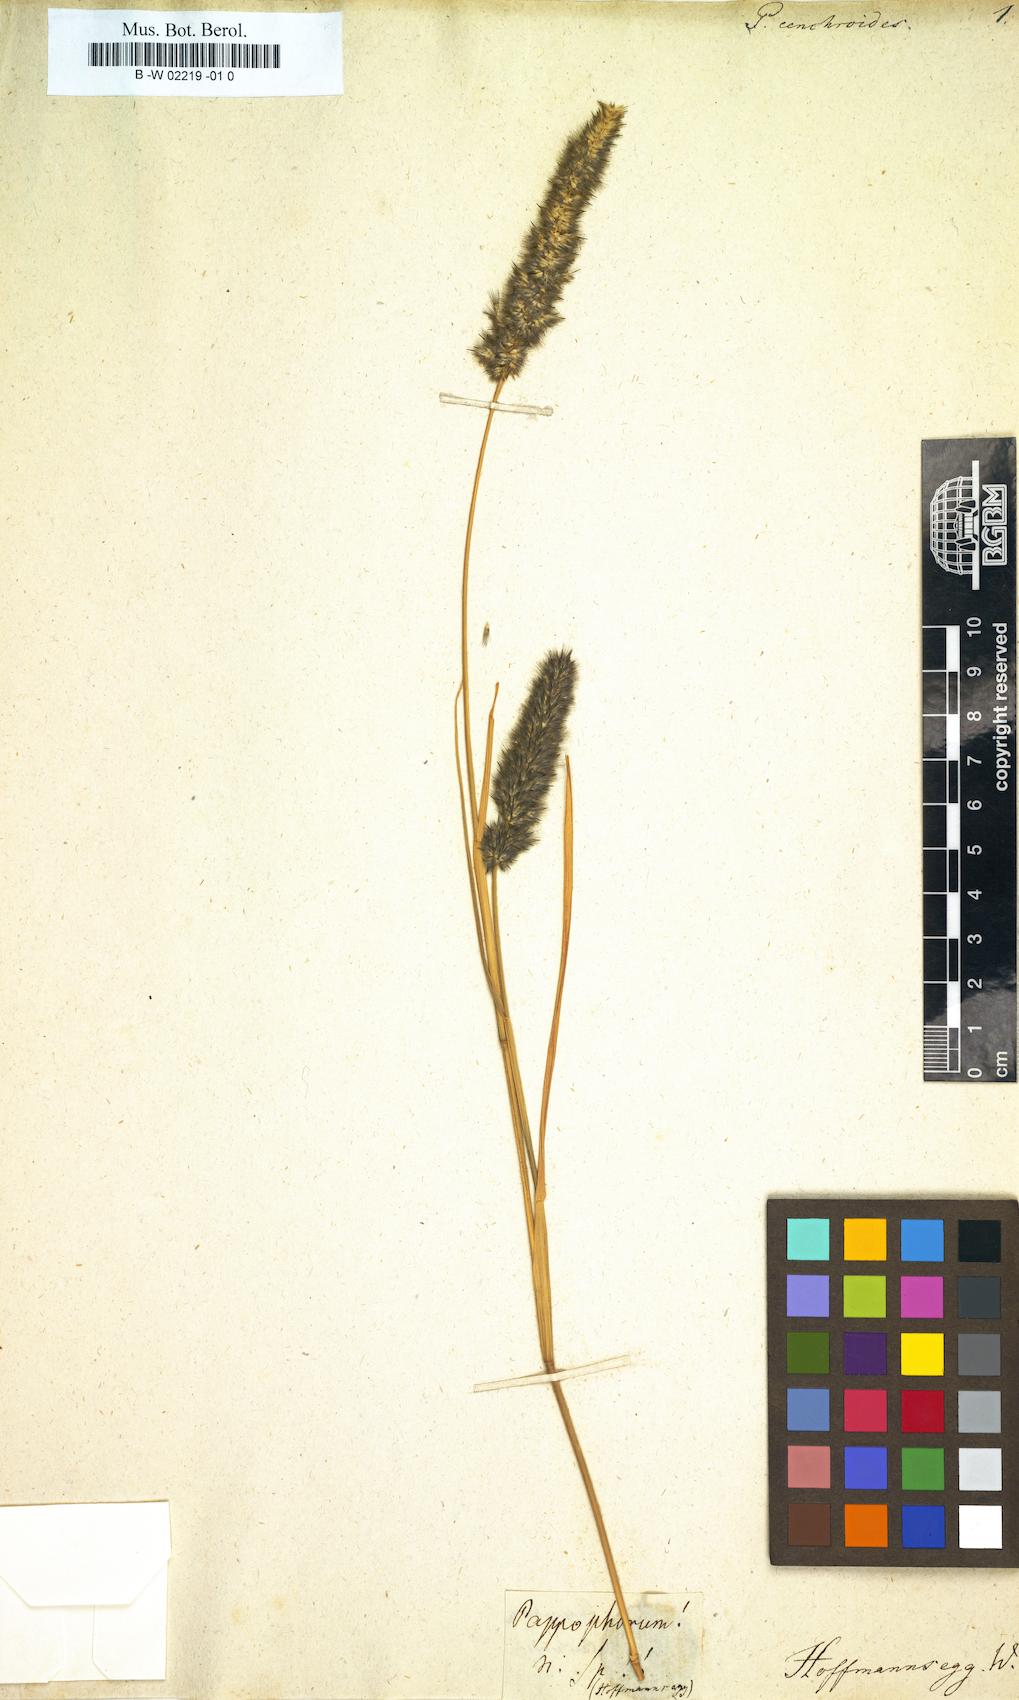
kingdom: Plantae
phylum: Tracheophyta
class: Liliopsida
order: Poales
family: Poaceae
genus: Enneapogon
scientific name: Enneapogon cenchroides
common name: Soft feather pappusgrass
